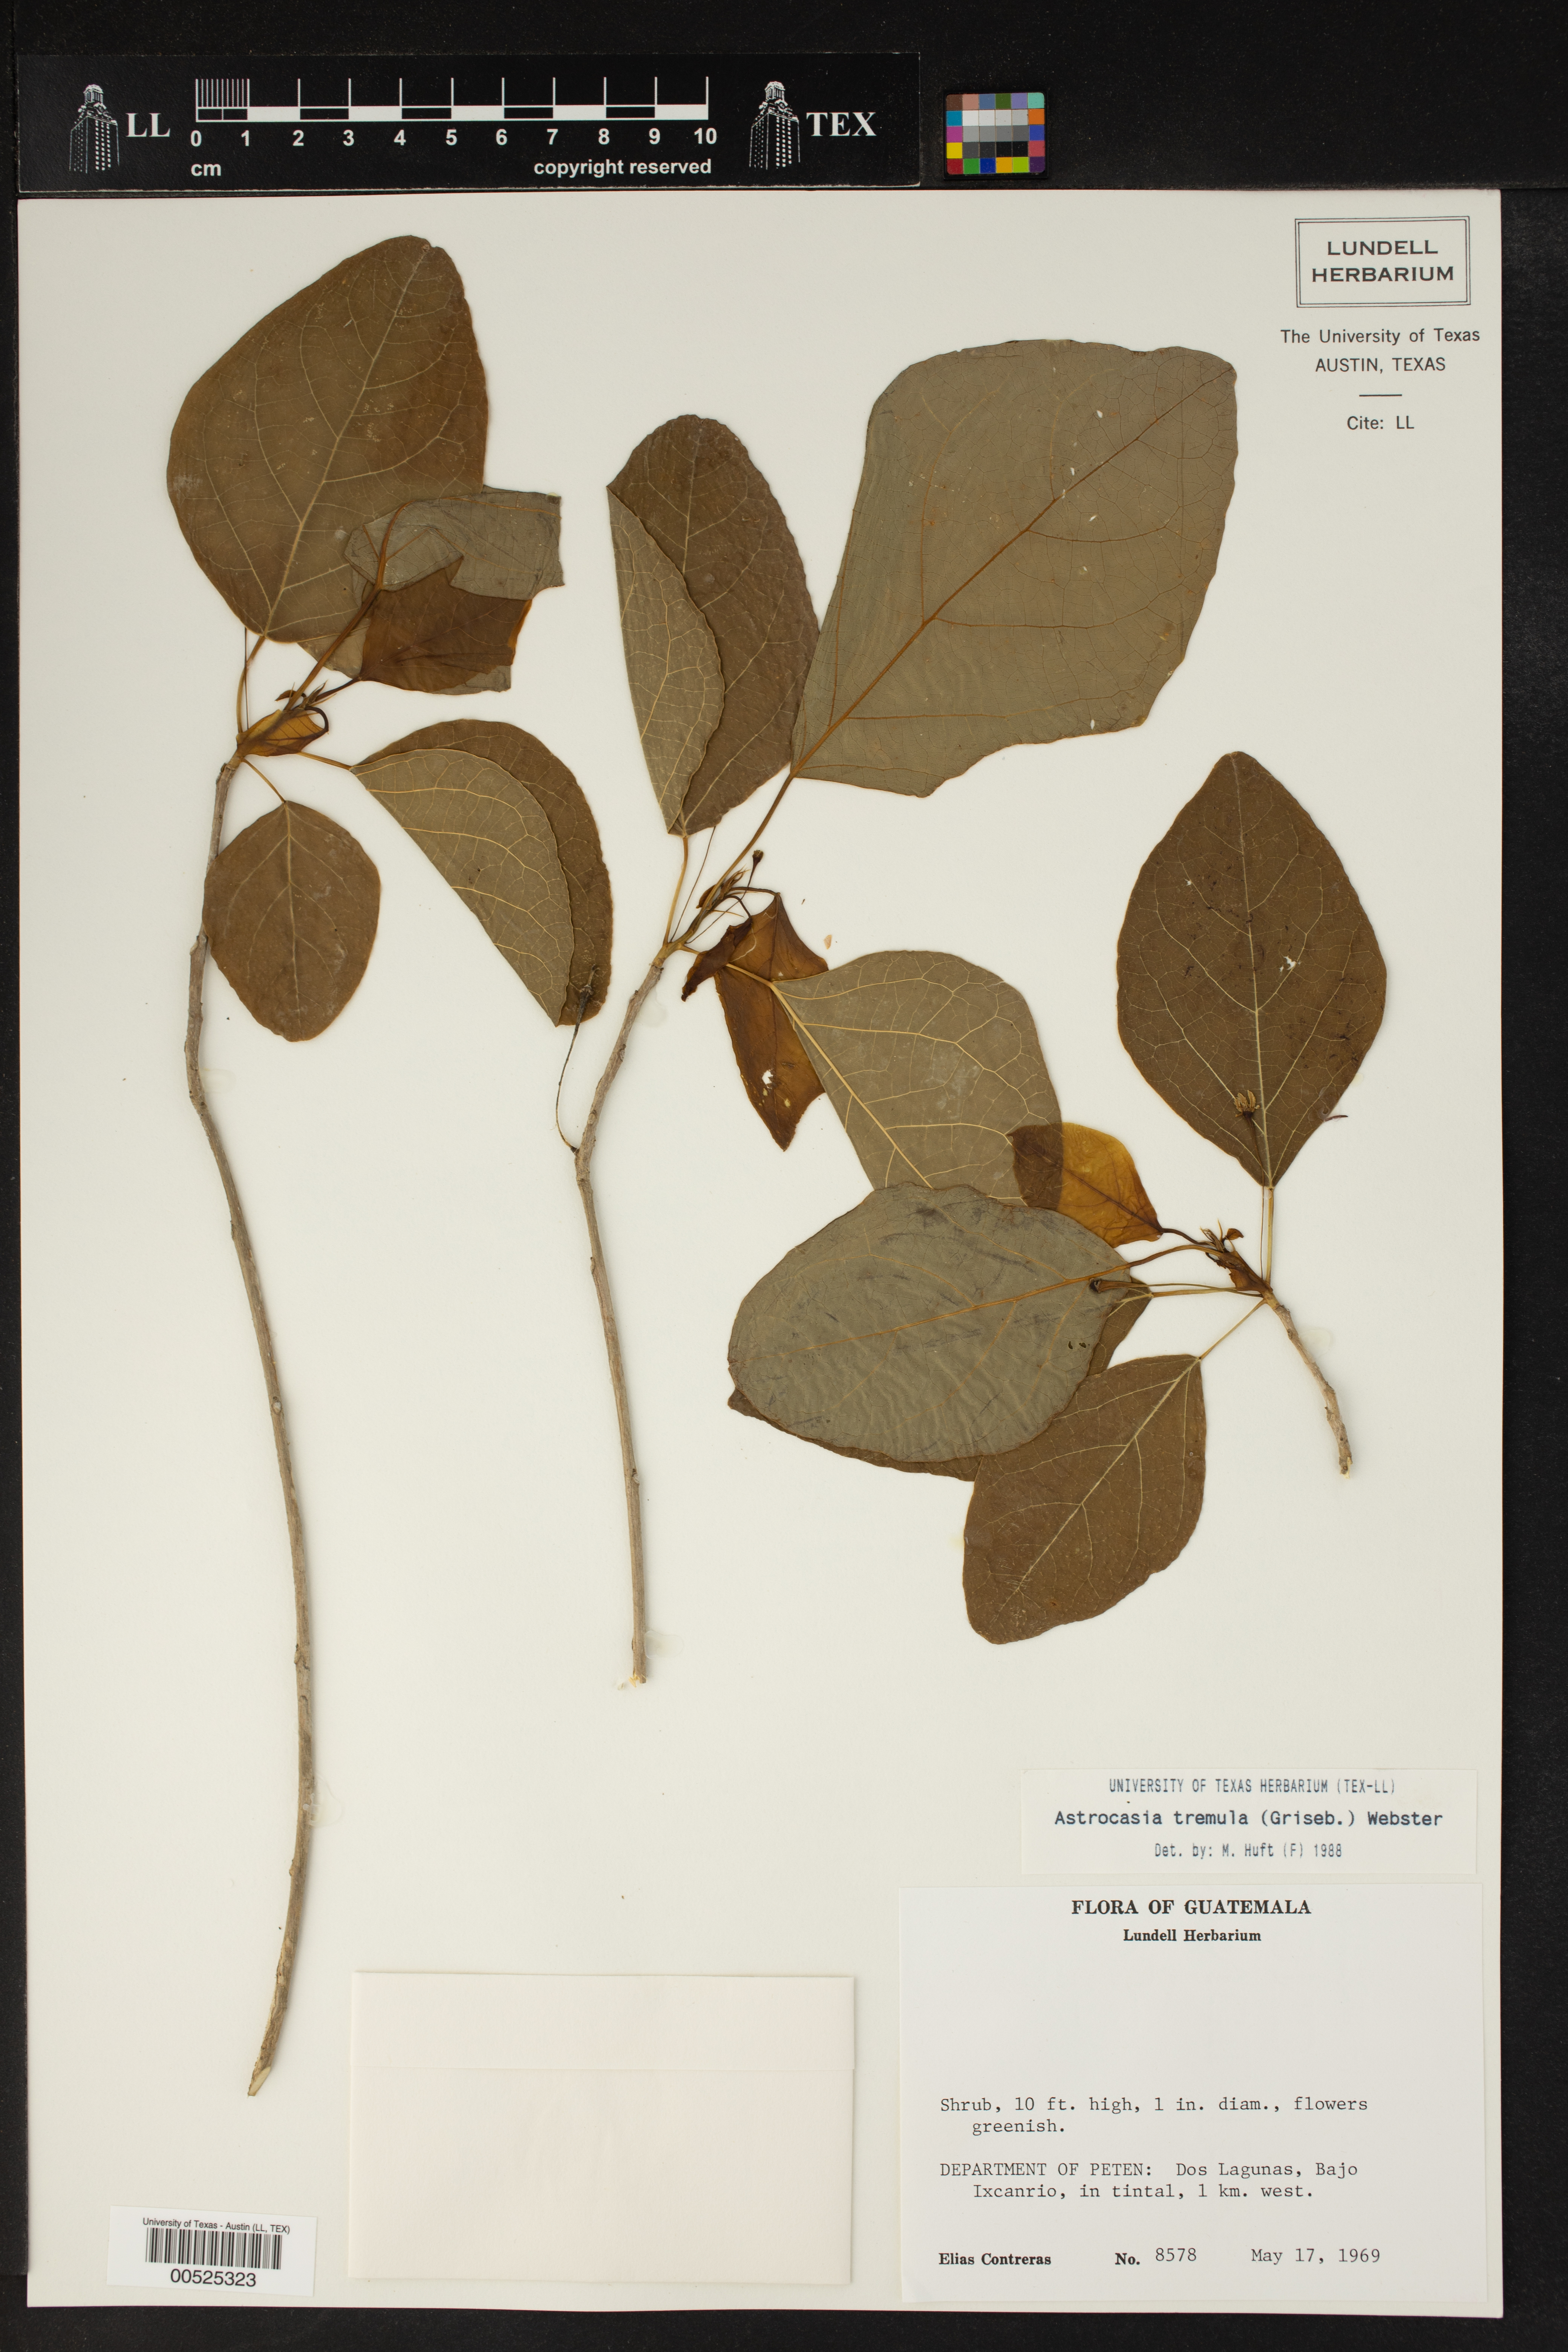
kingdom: Plantae
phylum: Tracheophyta
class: Magnoliopsida
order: Malpighiales
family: Phyllanthaceae
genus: Astrocasia
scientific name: Astrocasia tremula
